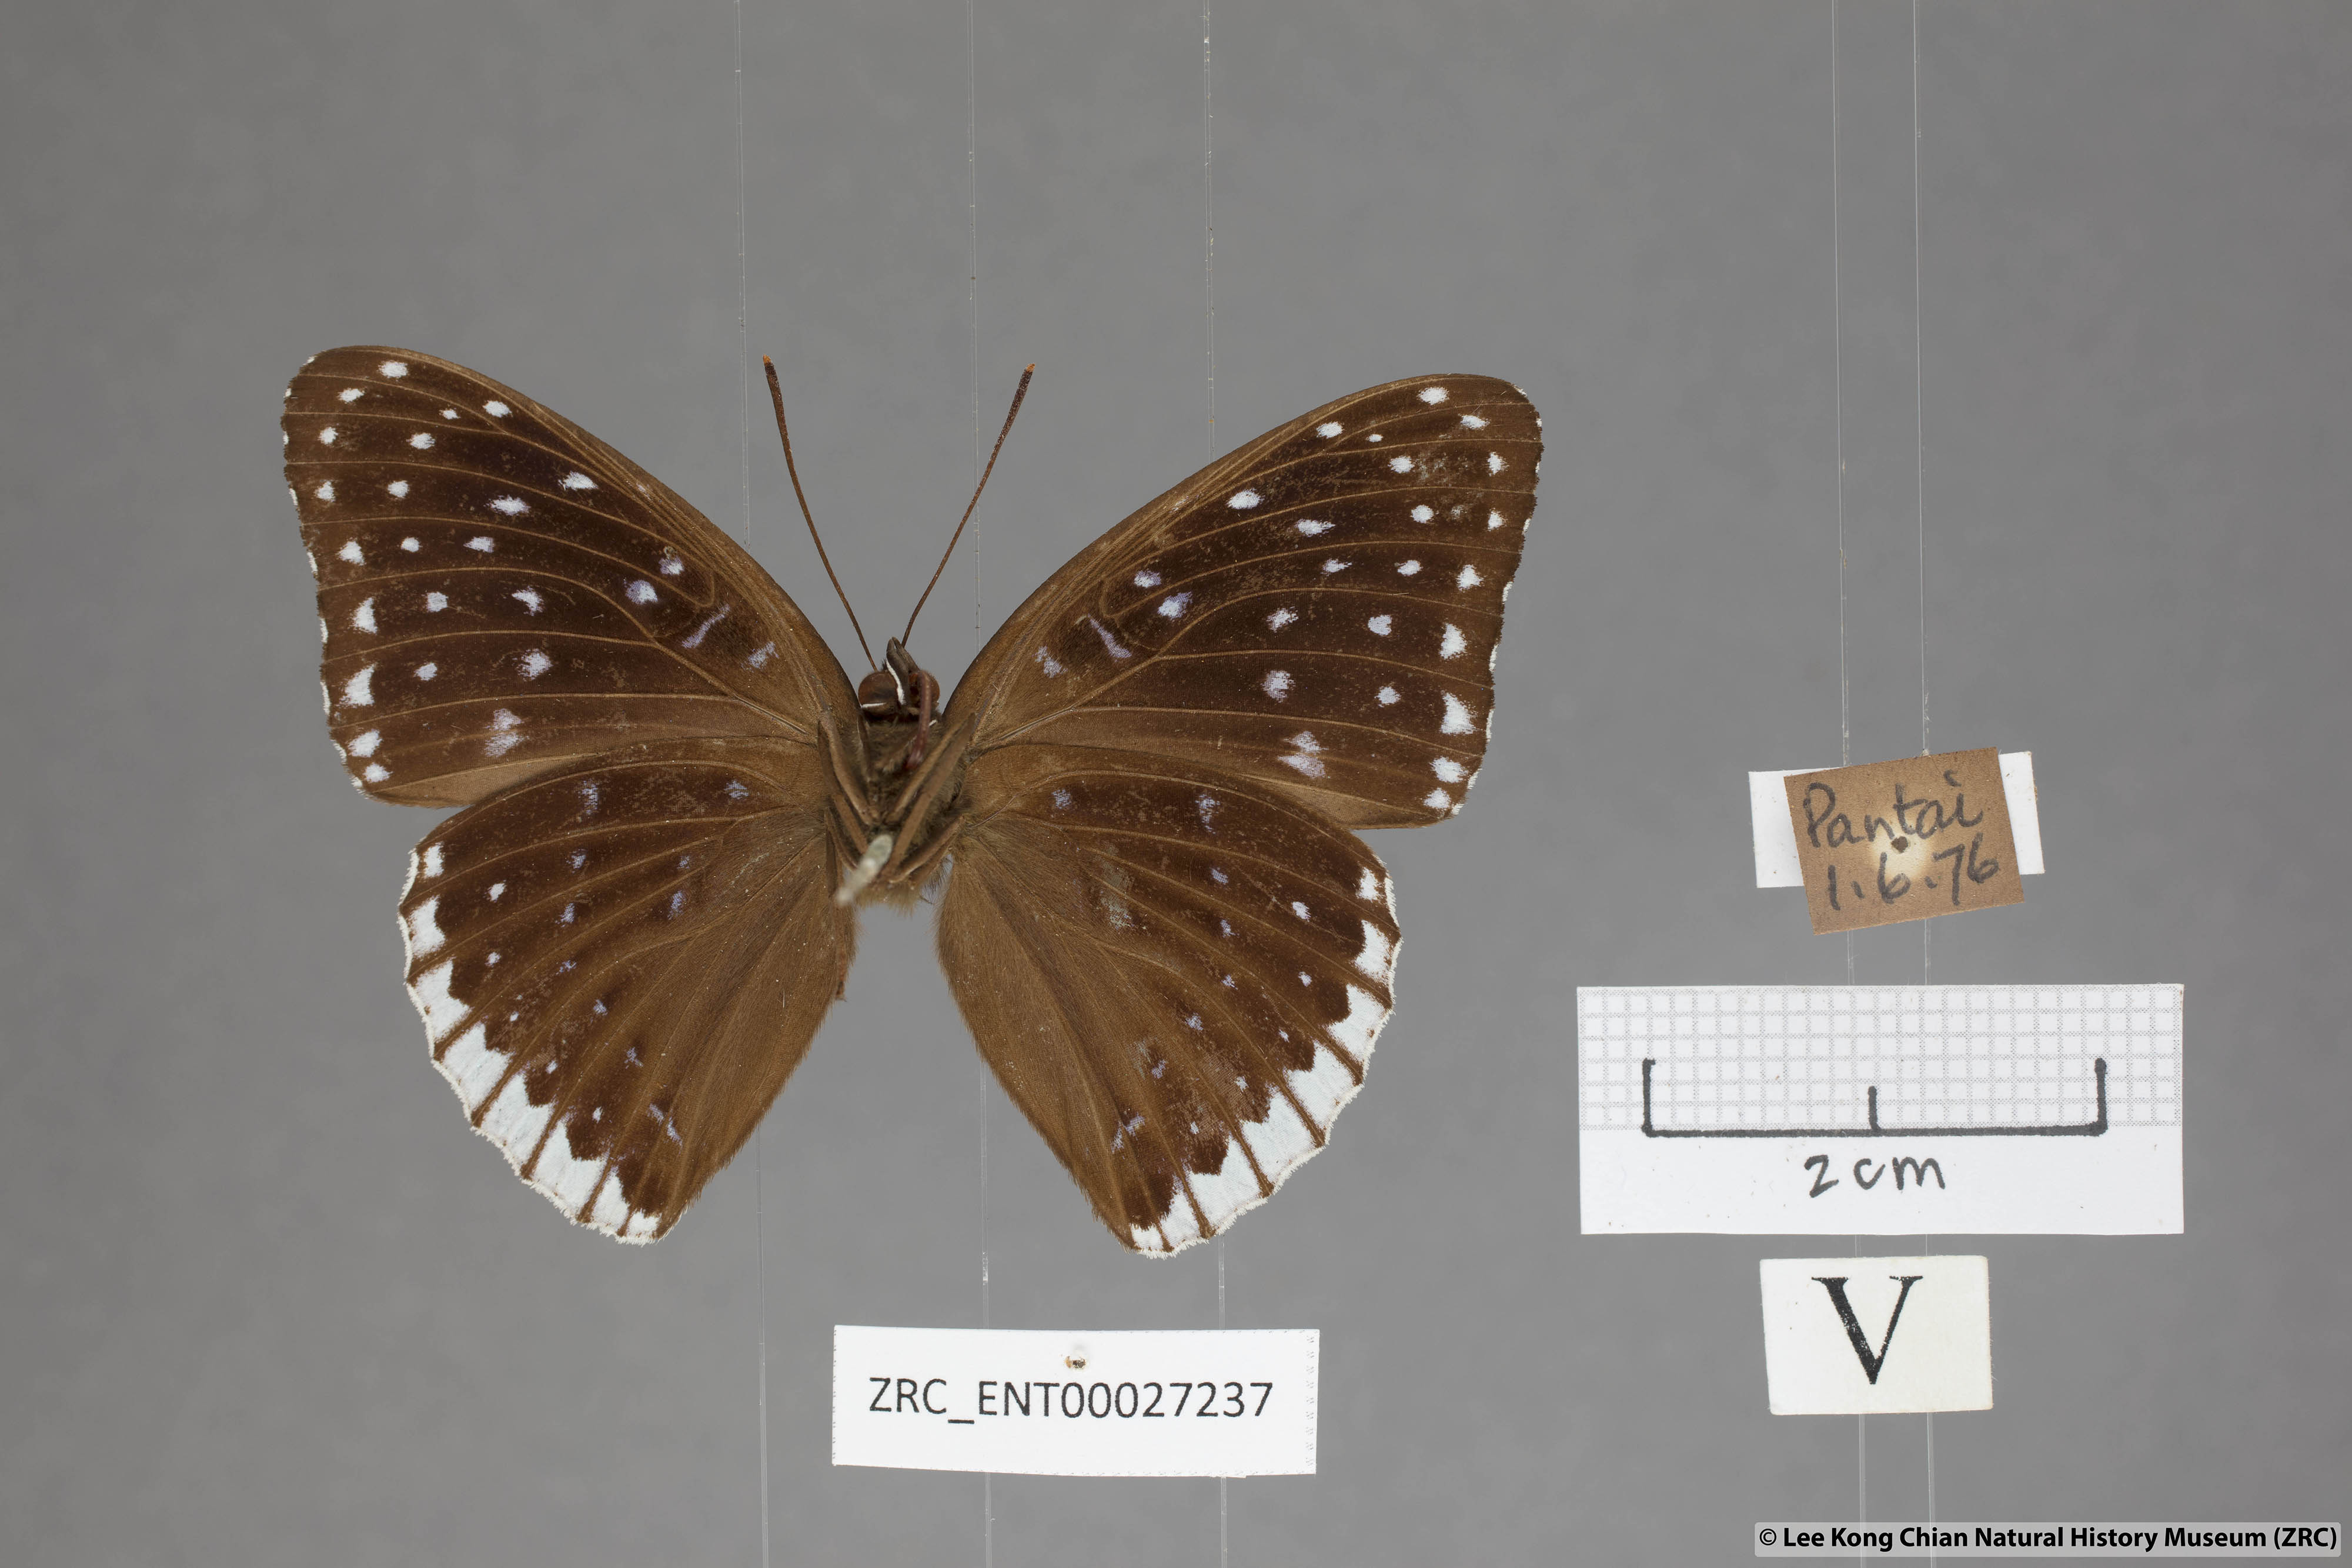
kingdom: Animalia
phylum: Arthropoda
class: Insecta
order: Lepidoptera
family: Nymphalidae
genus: Stibochiona
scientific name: Stibochiona nicea
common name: Popinjay
